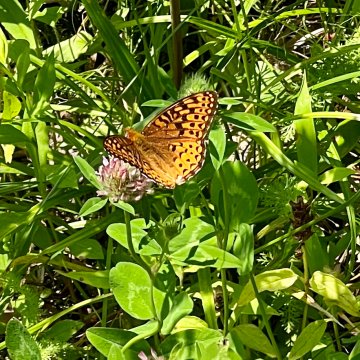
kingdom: Animalia
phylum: Arthropoda
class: Insecta
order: Lepidoptera
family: Nymphalidae
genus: Speyeria
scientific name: Speyeria atlantis
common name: Atlantis Fritillary
